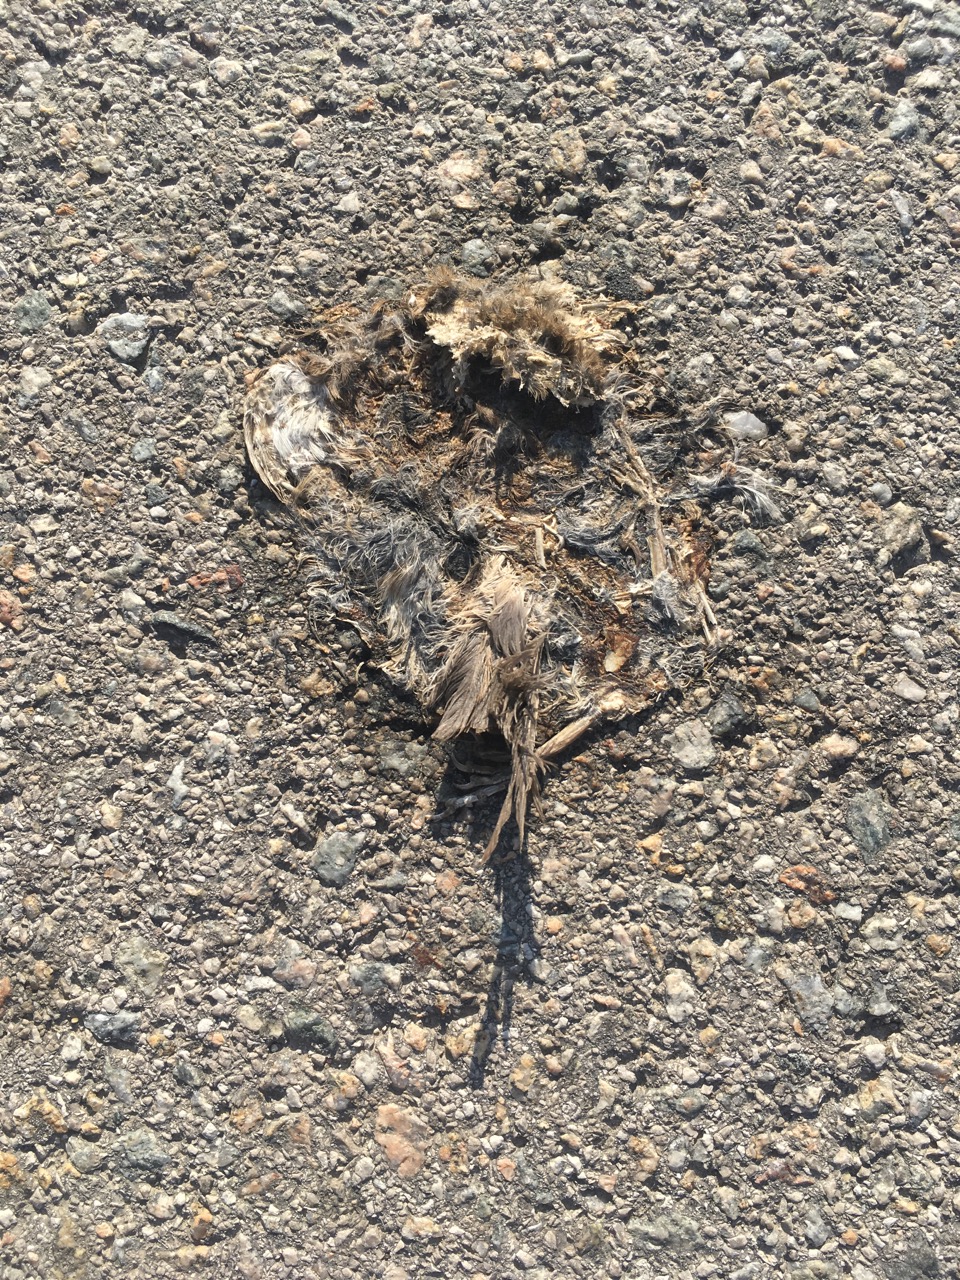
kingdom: Animalia
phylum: Chordata
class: Aves
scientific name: Aves
